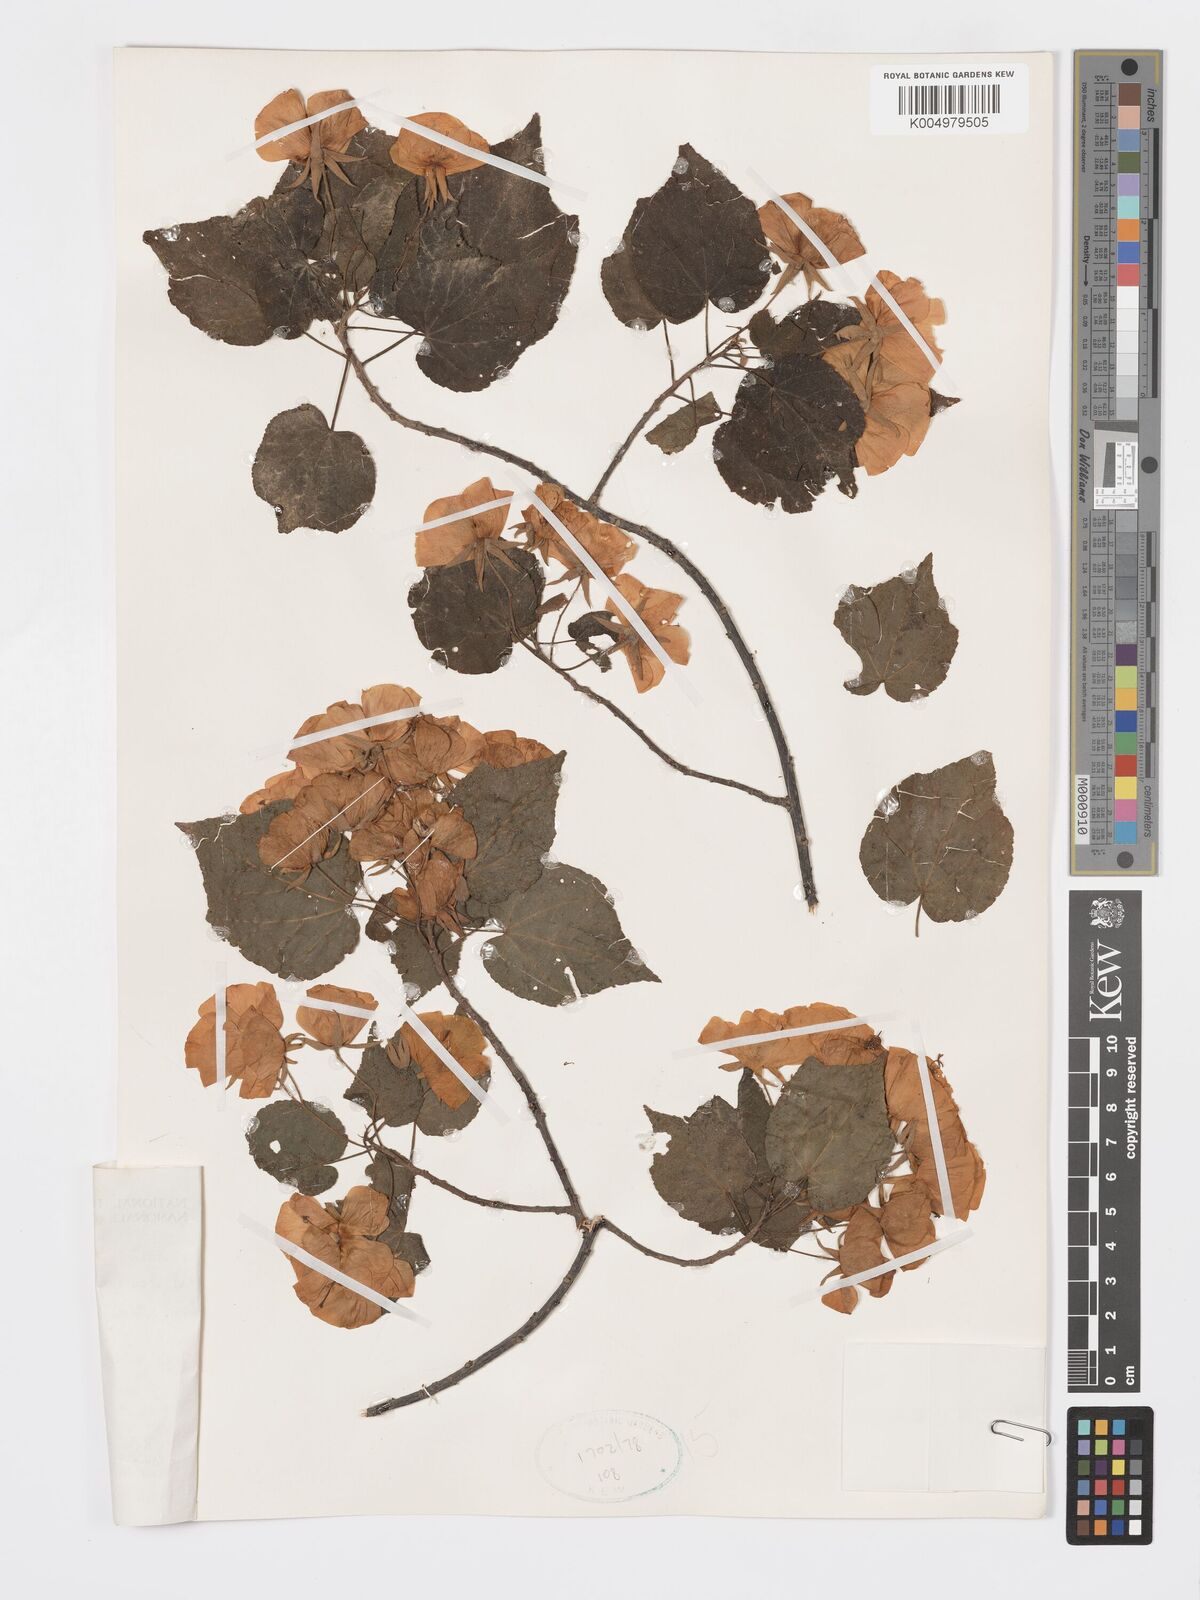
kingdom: Plantae
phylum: Tracheophyta
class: Magnoliopsida
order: Malvales
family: Malvaceae
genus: Dombeya
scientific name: Dombeya tiliacea
